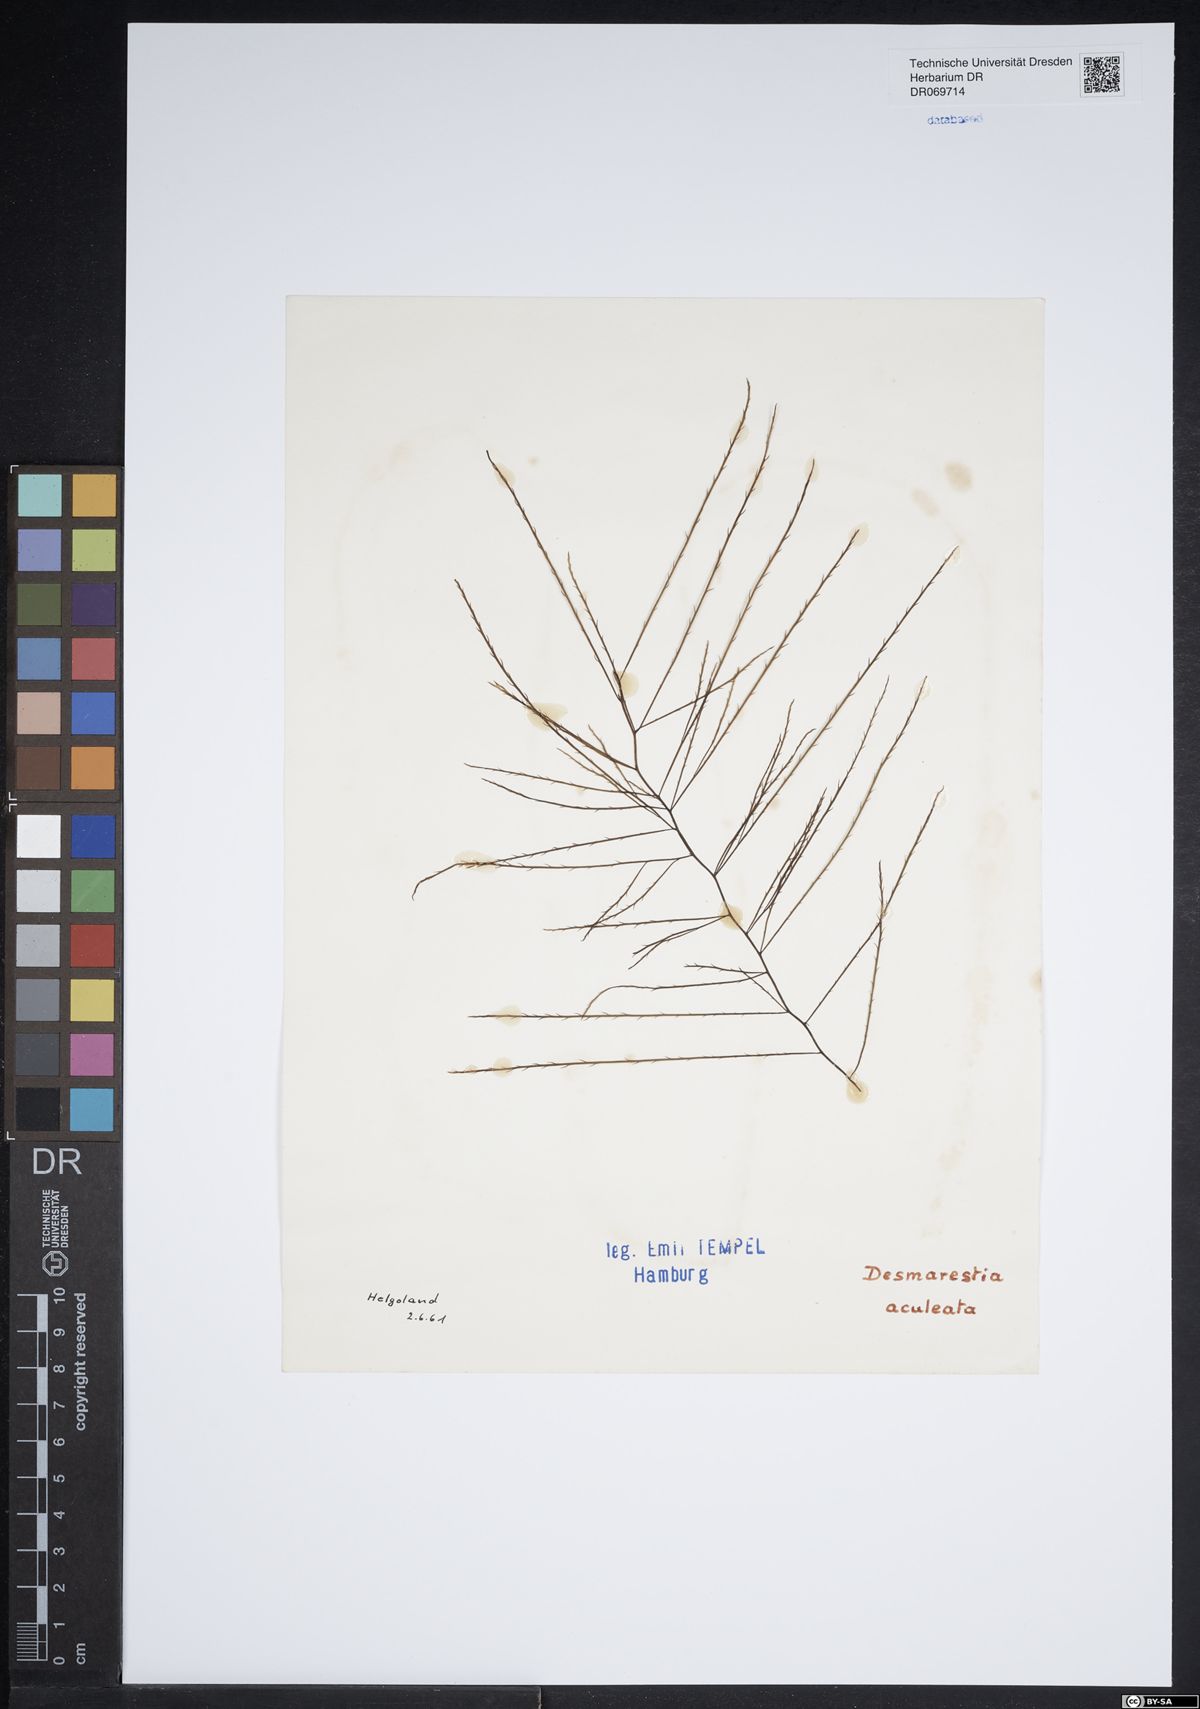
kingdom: Chromista
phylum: Ochrophyta
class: Phaeophyceae
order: Desmarestiales
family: Desmarestiaceae
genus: Desmarestia
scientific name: Desmarestia aculeata
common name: Witch's hair
